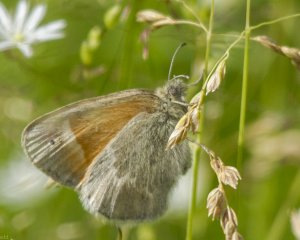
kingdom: Animalia
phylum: Arthropoda
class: Insecta
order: Lepidoptera
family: Nymphalidae
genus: Coenonympha
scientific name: Coenonympha tullia
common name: Large Heath
